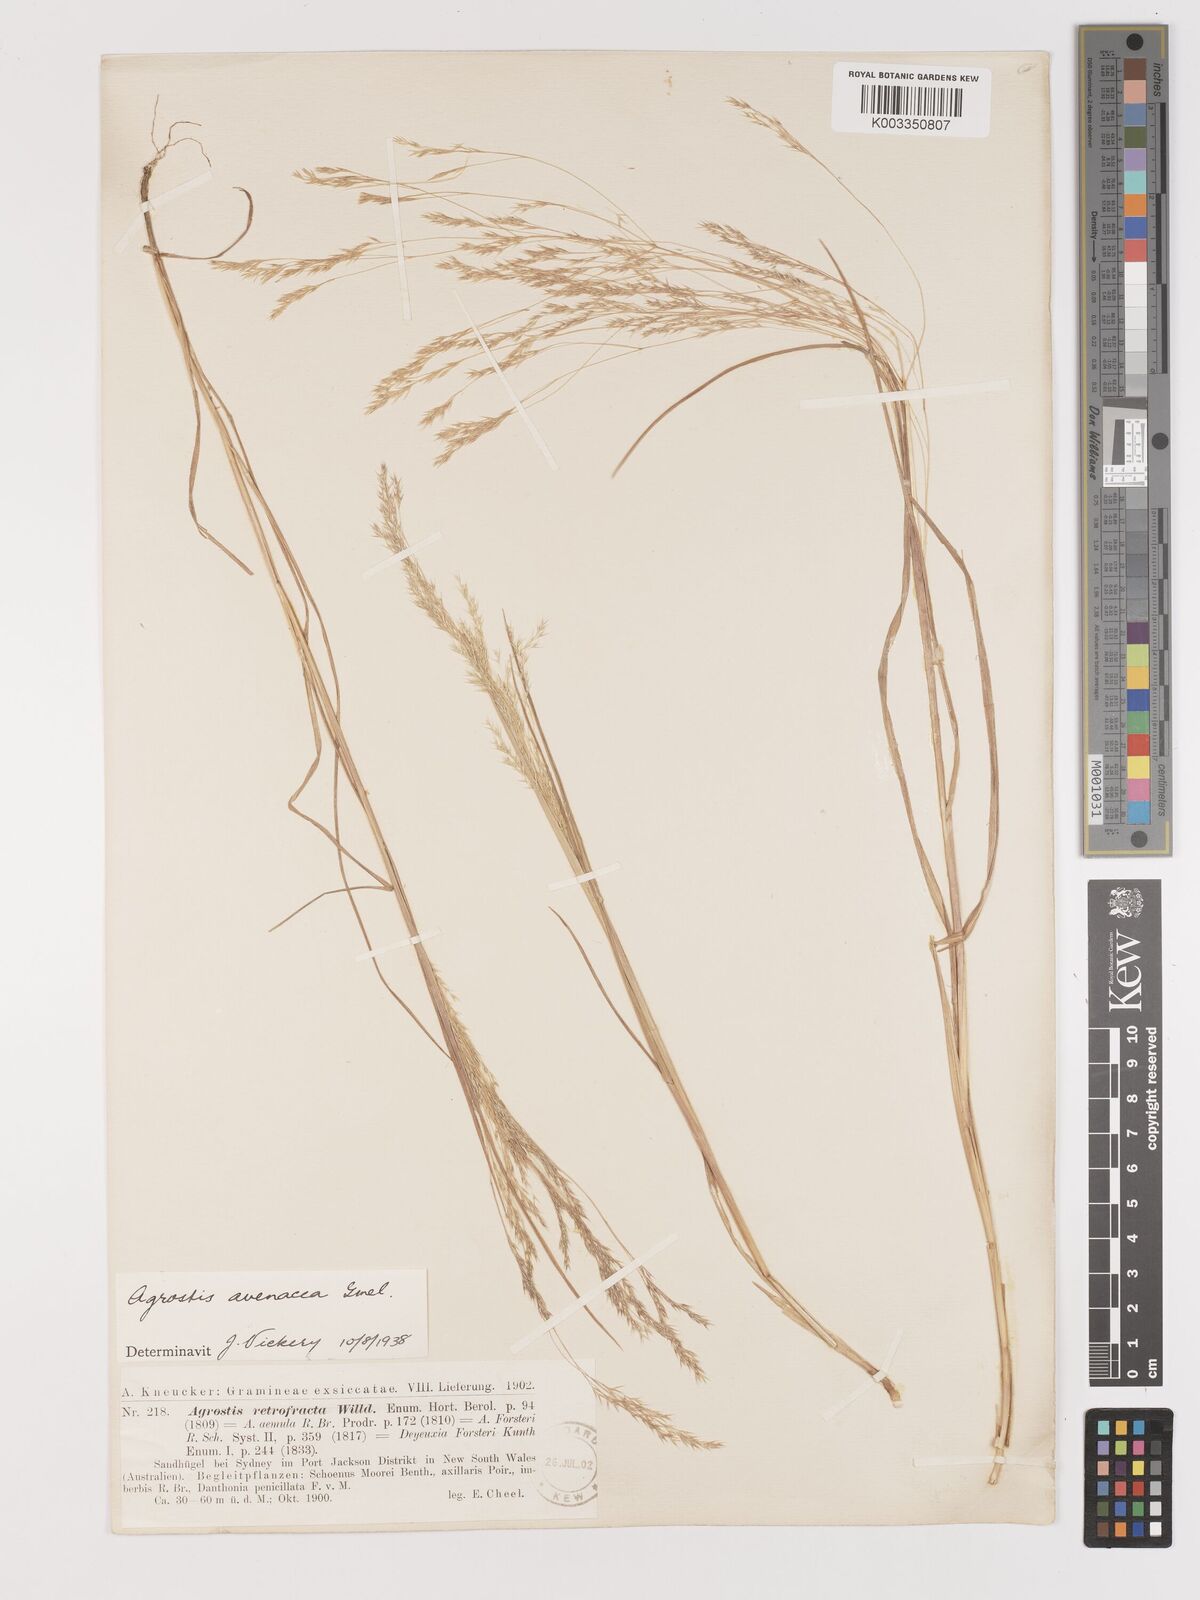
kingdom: Plantae
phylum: Tracheophyta
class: Liliopsida
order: Poales
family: Poaceae
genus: Lachnagrostis
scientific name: Lachnagrostis filiformis
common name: Bentgrass
